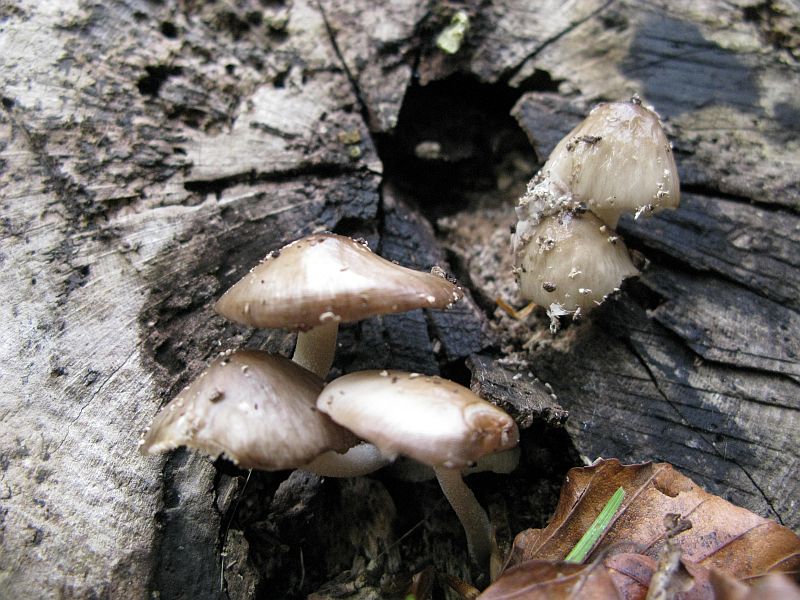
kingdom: Fungi
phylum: Basidiomycota
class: Agaricomycetes
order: Agaricales
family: Bolbitiaceae
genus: Bolbitius
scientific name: Bolbitius reticulatus
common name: Netted fieldcap
